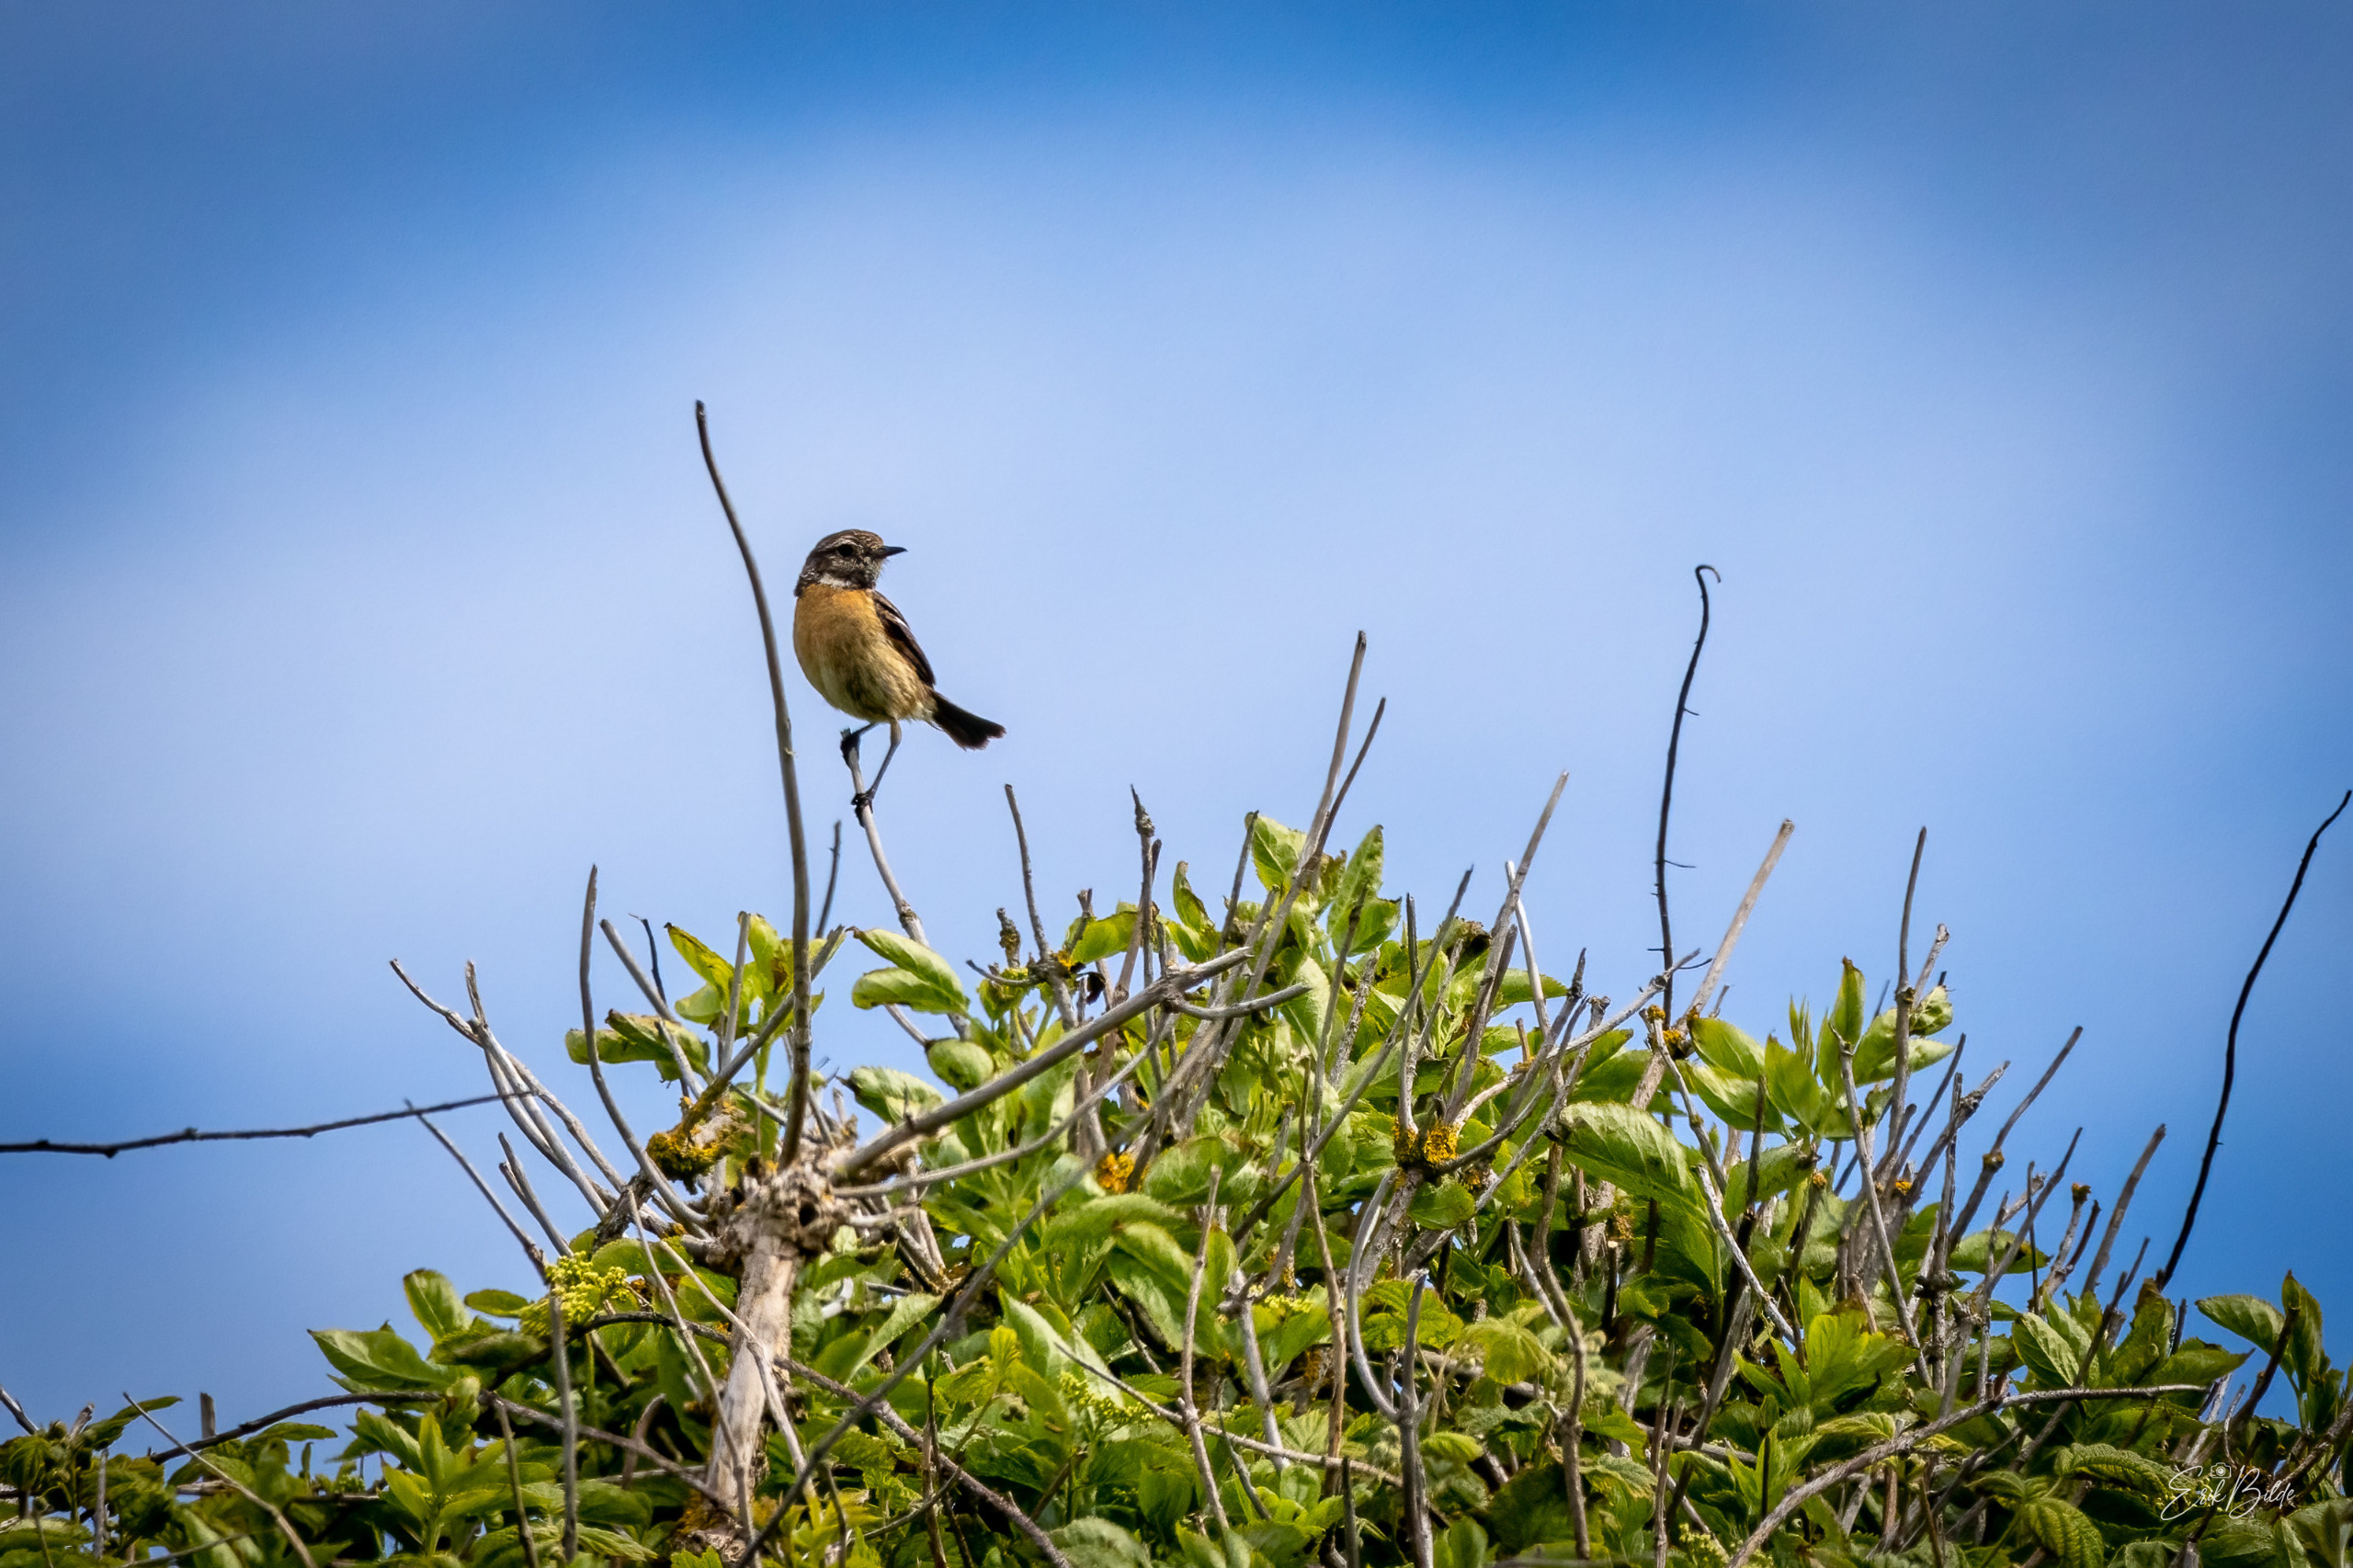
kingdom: Animalia
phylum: Chordata
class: Aves
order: Passeriformes
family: Muscicapidae
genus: Saxicola
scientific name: Saxicola rubicola
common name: Sortstrubet bynkefugl
